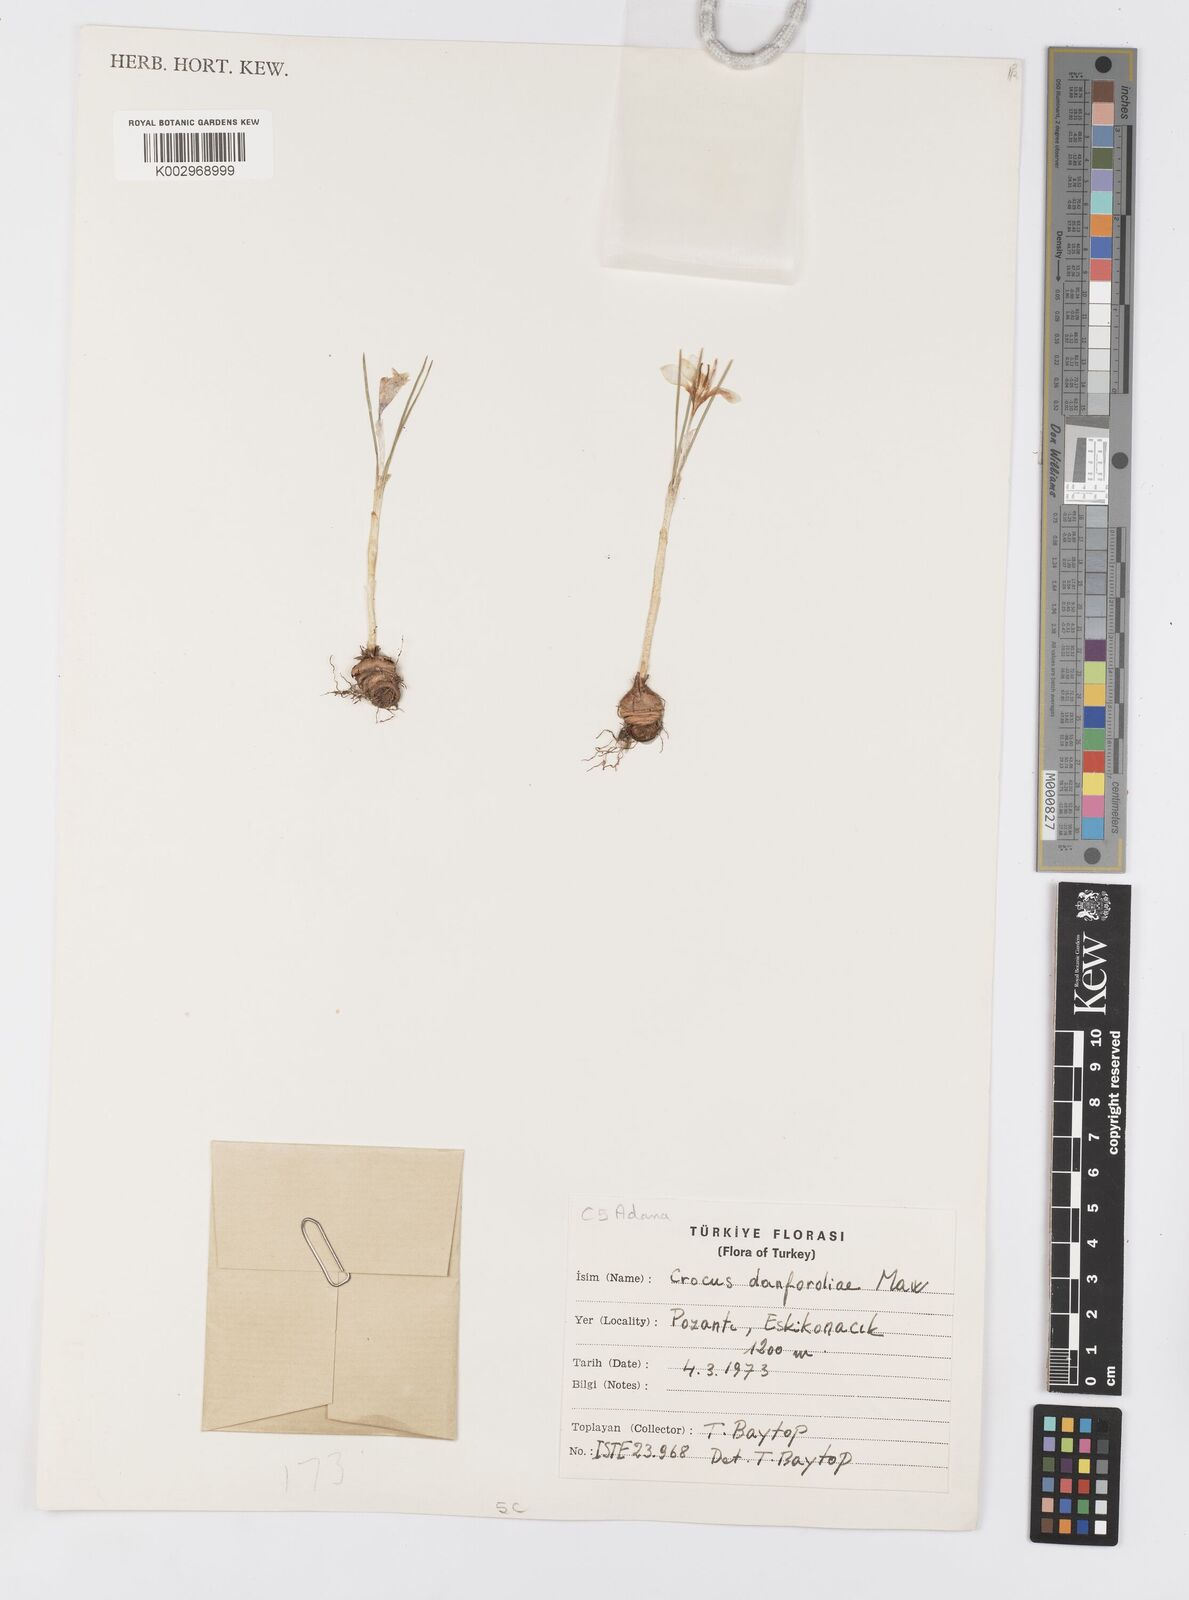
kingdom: Plantae
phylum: Tracheophyta
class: Liliopsida
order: Asparagales
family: Iridaceae
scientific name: Iridaceae
